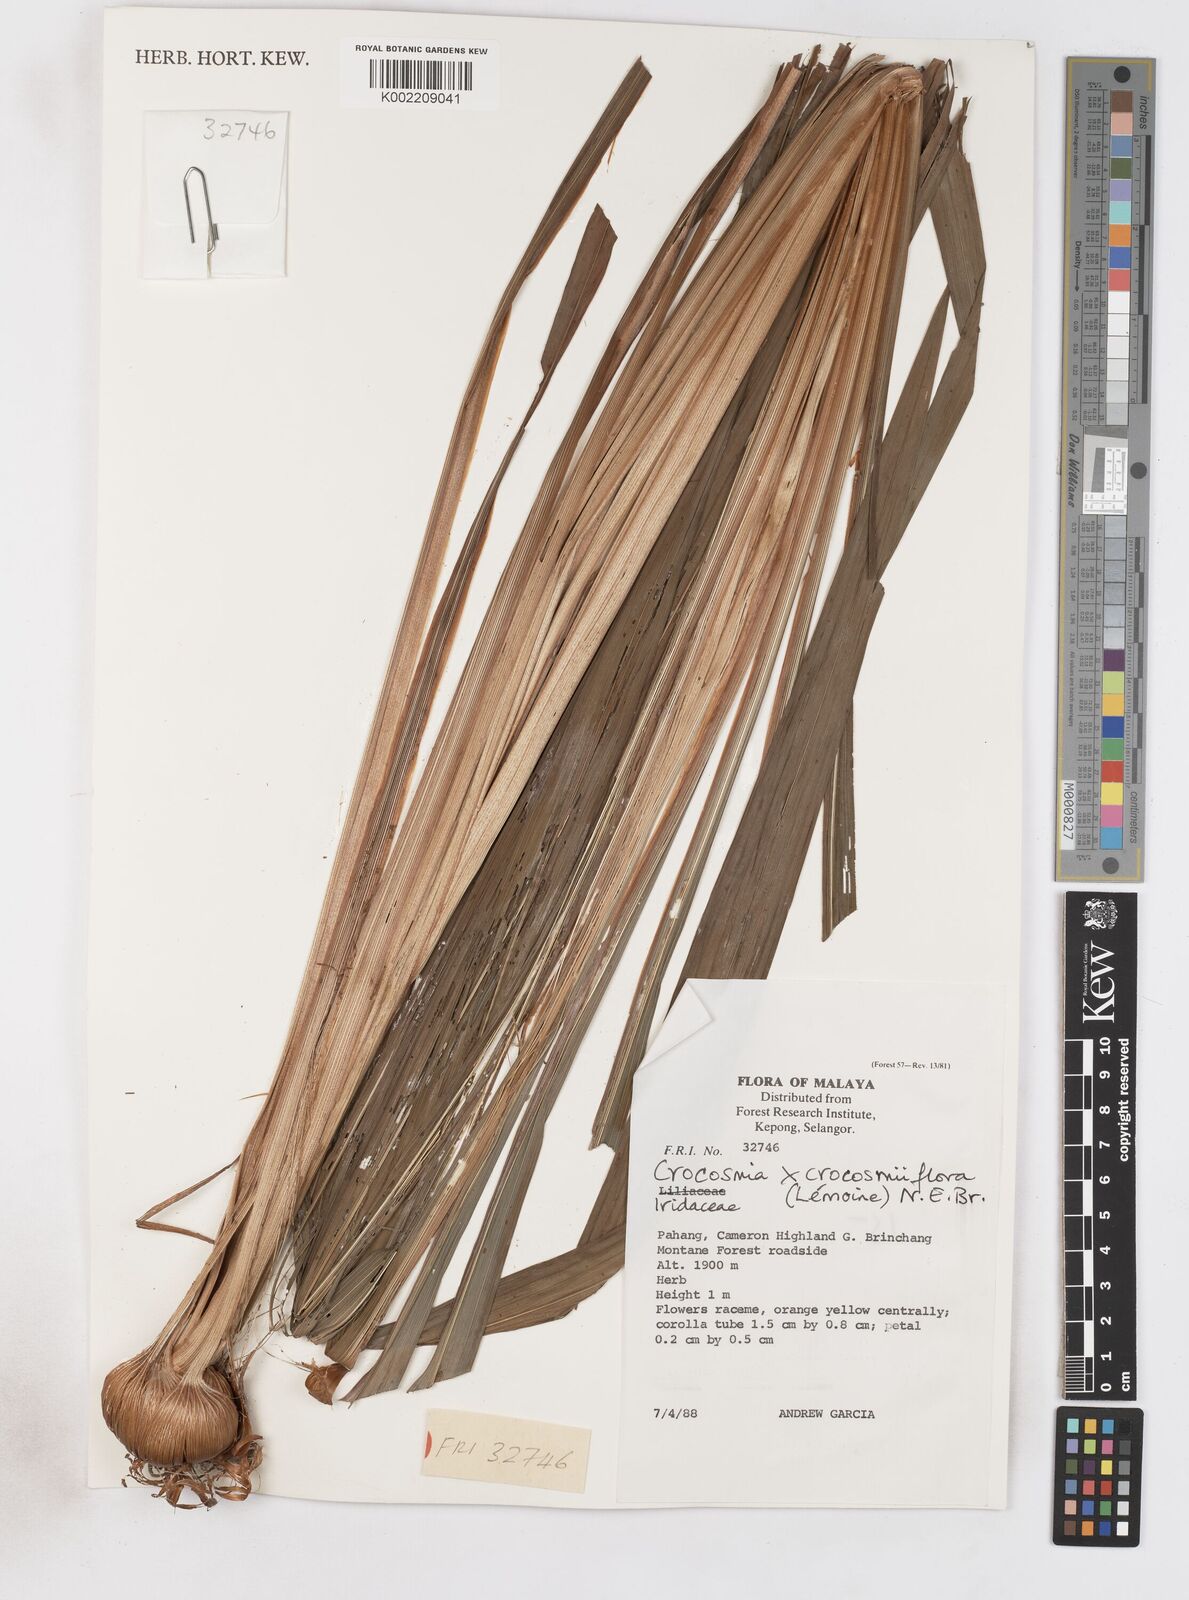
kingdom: Plantae
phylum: Tracheophyta
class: Liliopsida
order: Asparagales
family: Iridaceae
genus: Crocosmia
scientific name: Crocosmia crocosmiiflora
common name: Montbretia
